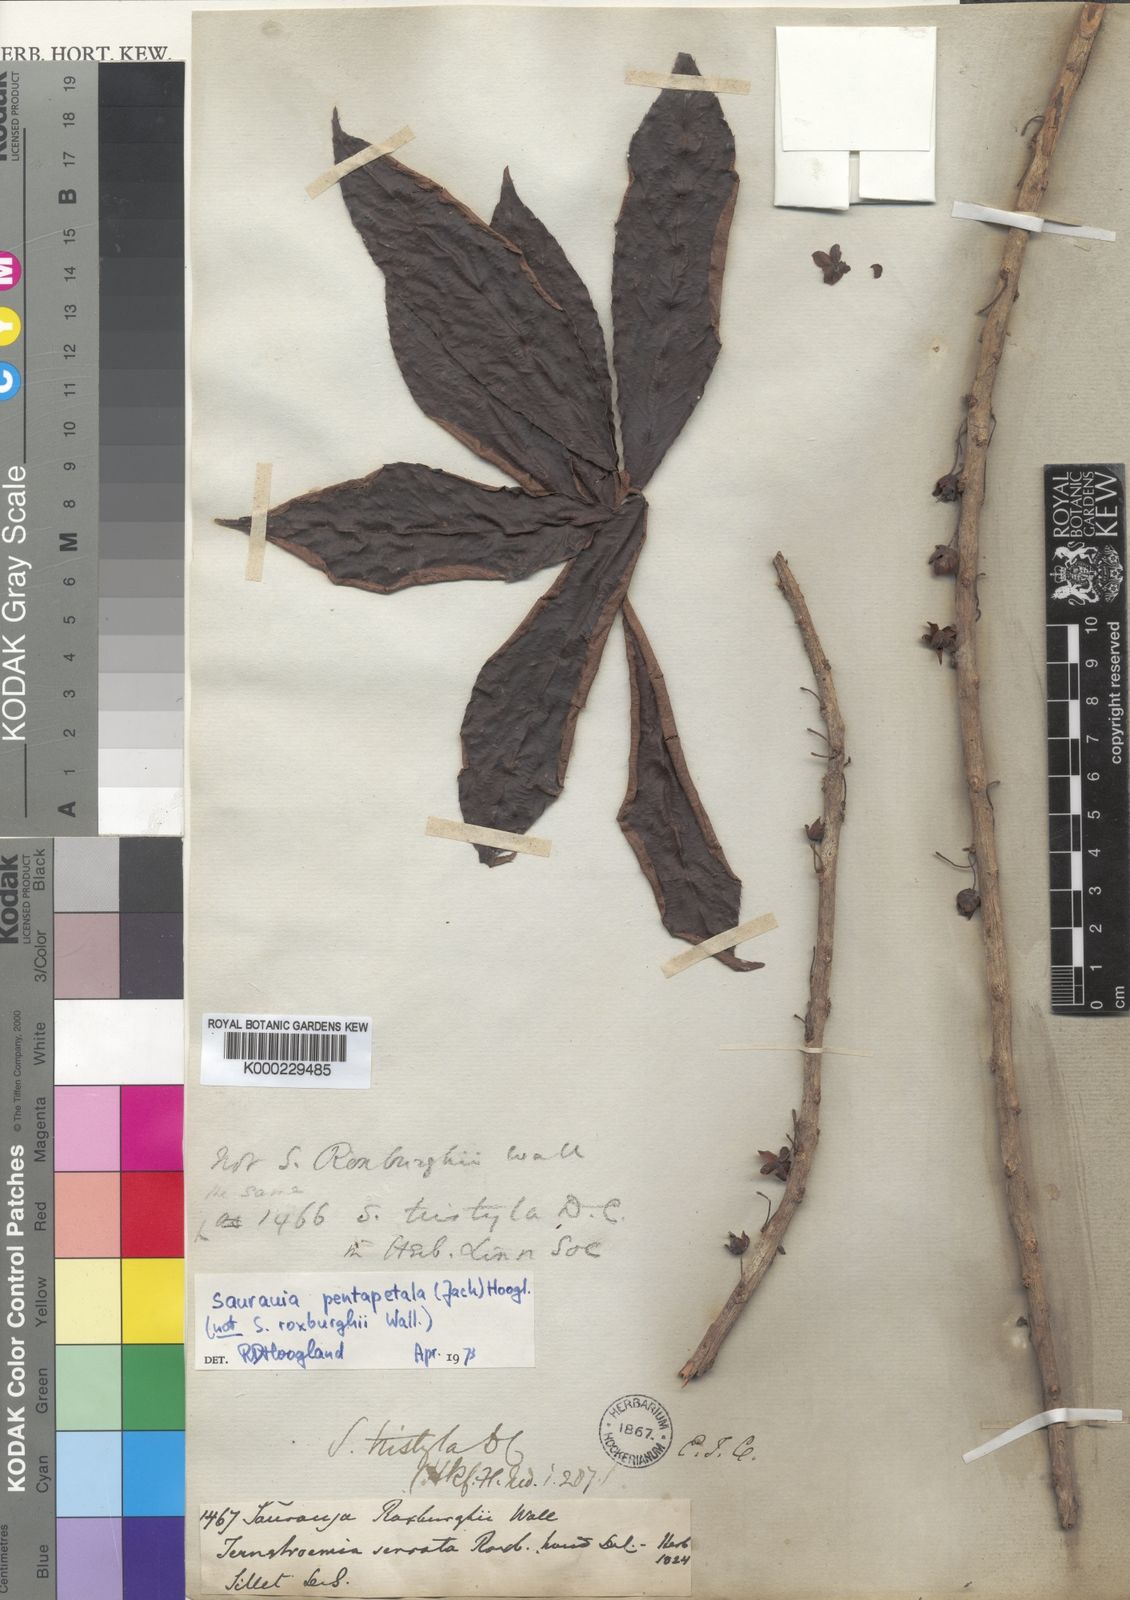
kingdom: Plantae
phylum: Tracheophyta
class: Magnoliopsida
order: Ericales
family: Actinidiaceae
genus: Saurauia
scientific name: Saurauia tristyla
